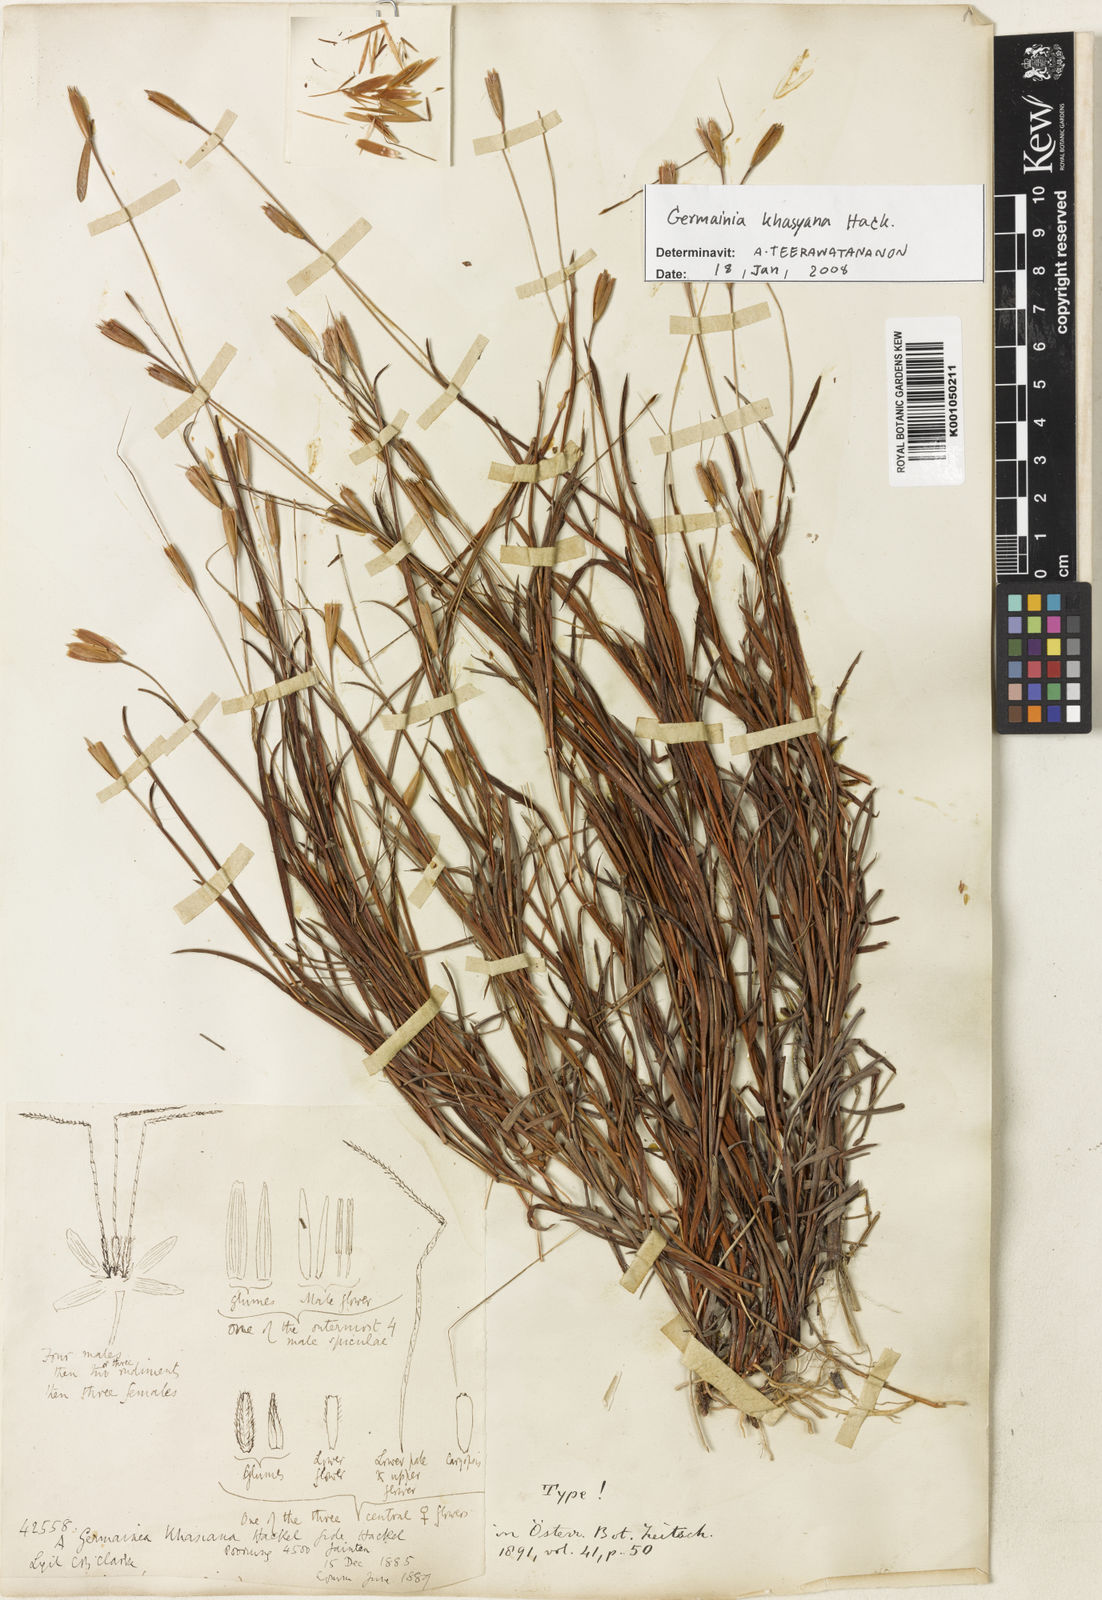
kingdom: Plantae
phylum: Tracheophyta
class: Liliopsida
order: Poales
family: Poaceae
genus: Germainia
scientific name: Germainia khasyana
